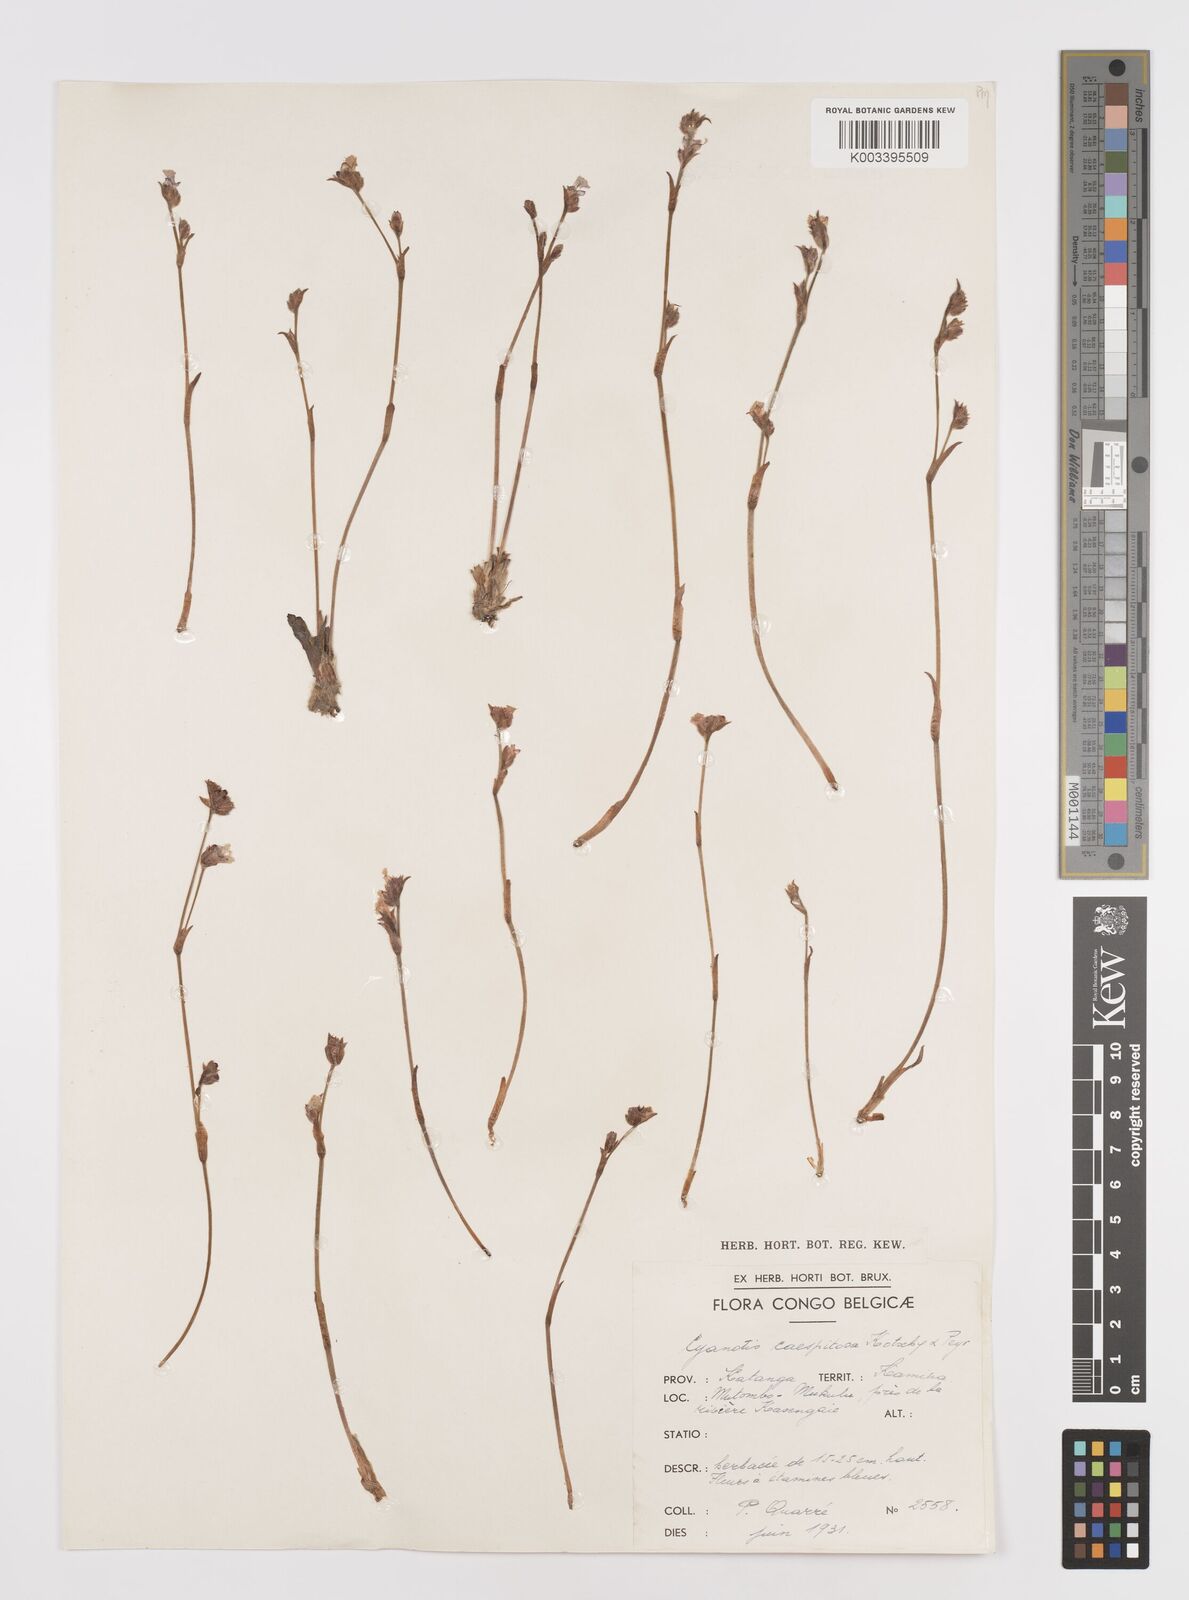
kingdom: Plantae
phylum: Tracheophyta
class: Liliopsida
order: Commelinales
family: Commelinaceae
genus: Cyanotis
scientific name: Cyanotis caespitosa
